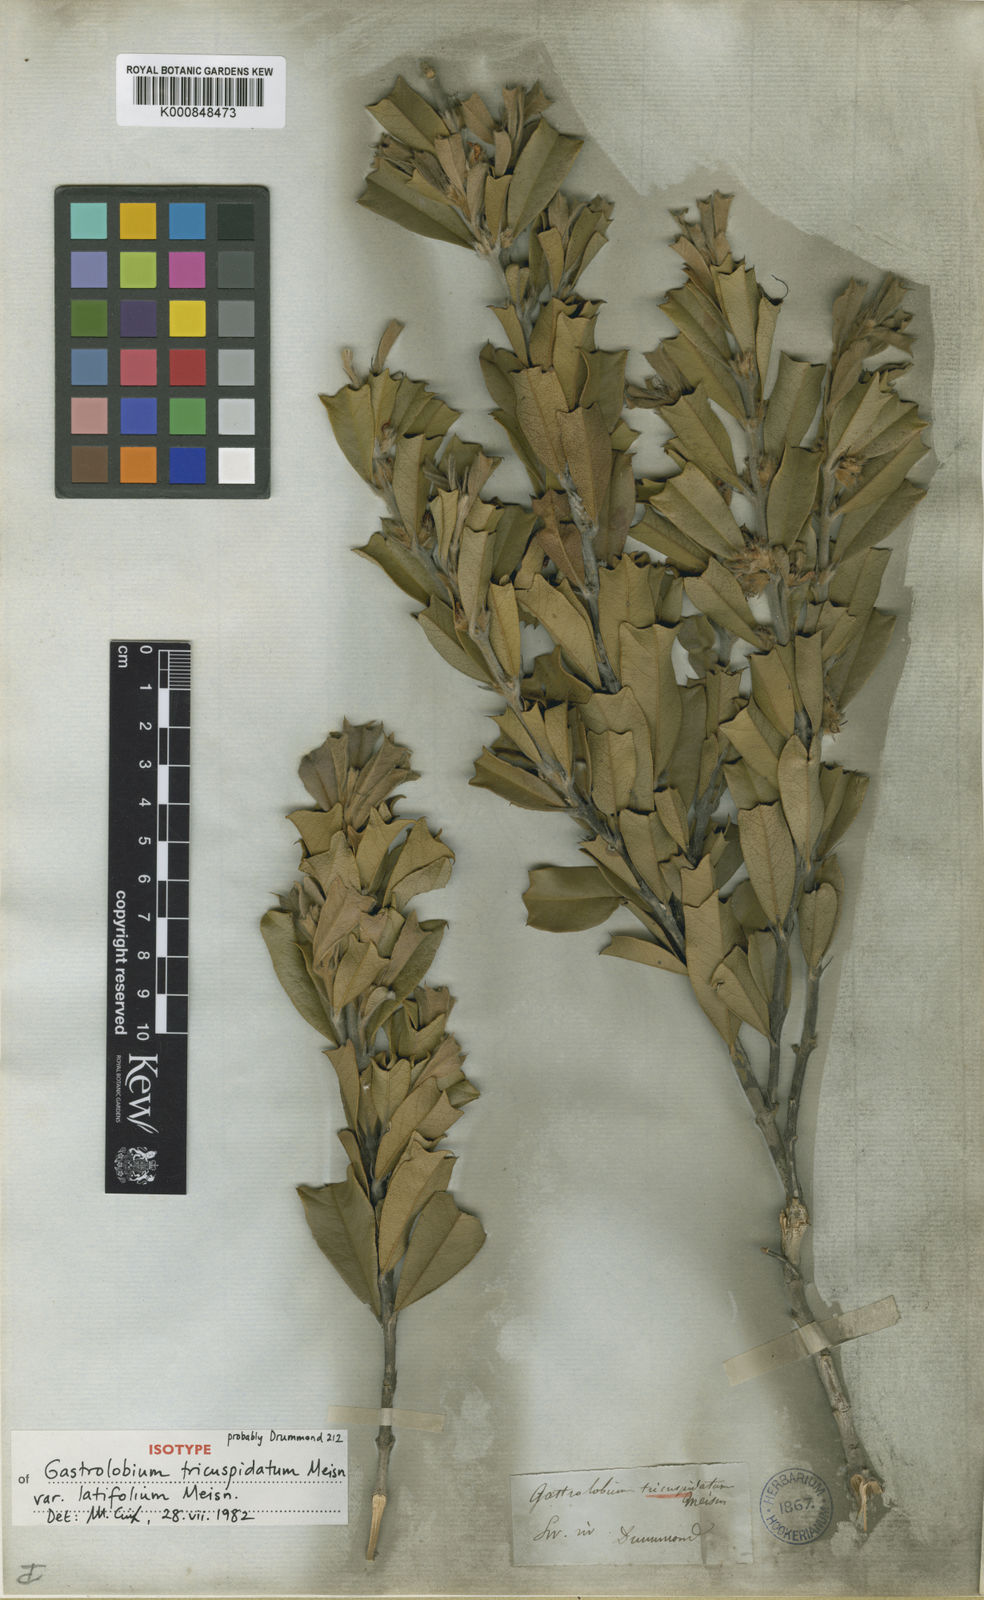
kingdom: Plantae
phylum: Tracheophyta
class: Magnoliopsida
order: Fabales
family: Fabaceae
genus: Gastrolobium
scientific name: Gastrolobium tricuspidatum
